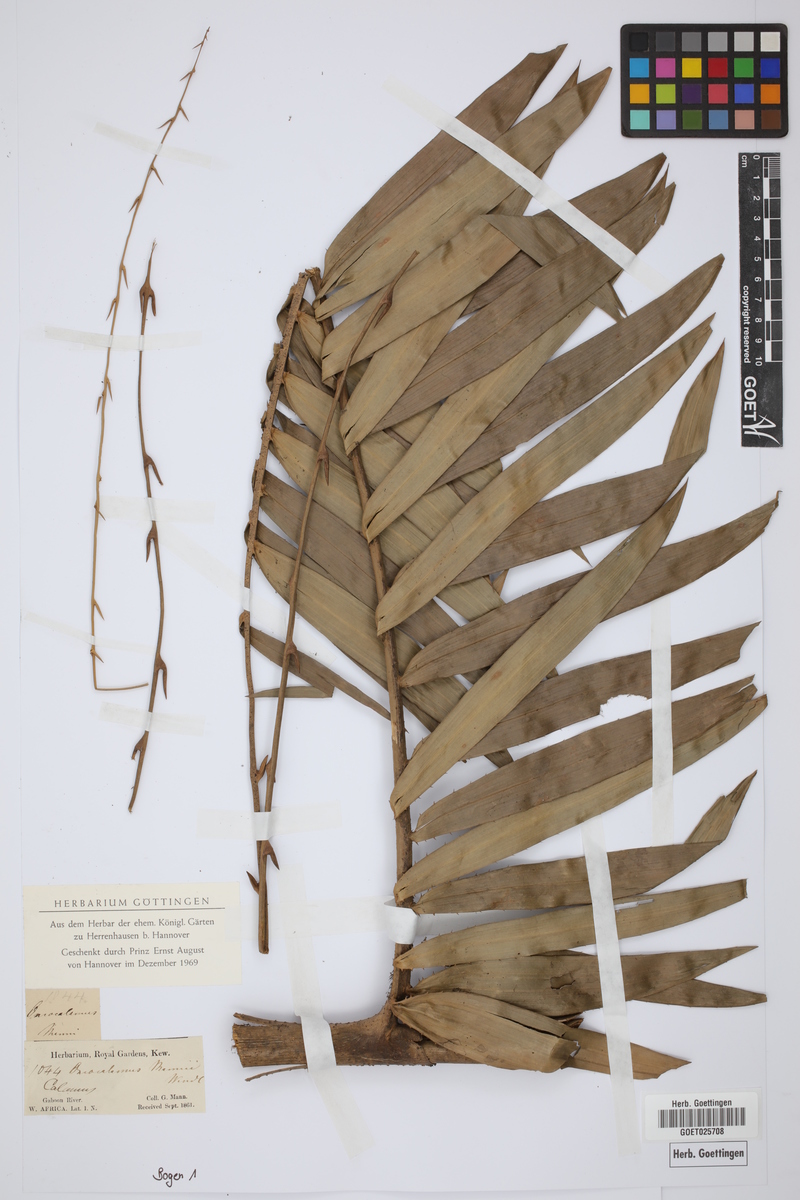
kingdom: Plantae
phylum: Tracheophyta
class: Liliopsida
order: Arecales
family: Arecaceae
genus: Oncocalamus
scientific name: Oncocalamus mannii
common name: Rattan
